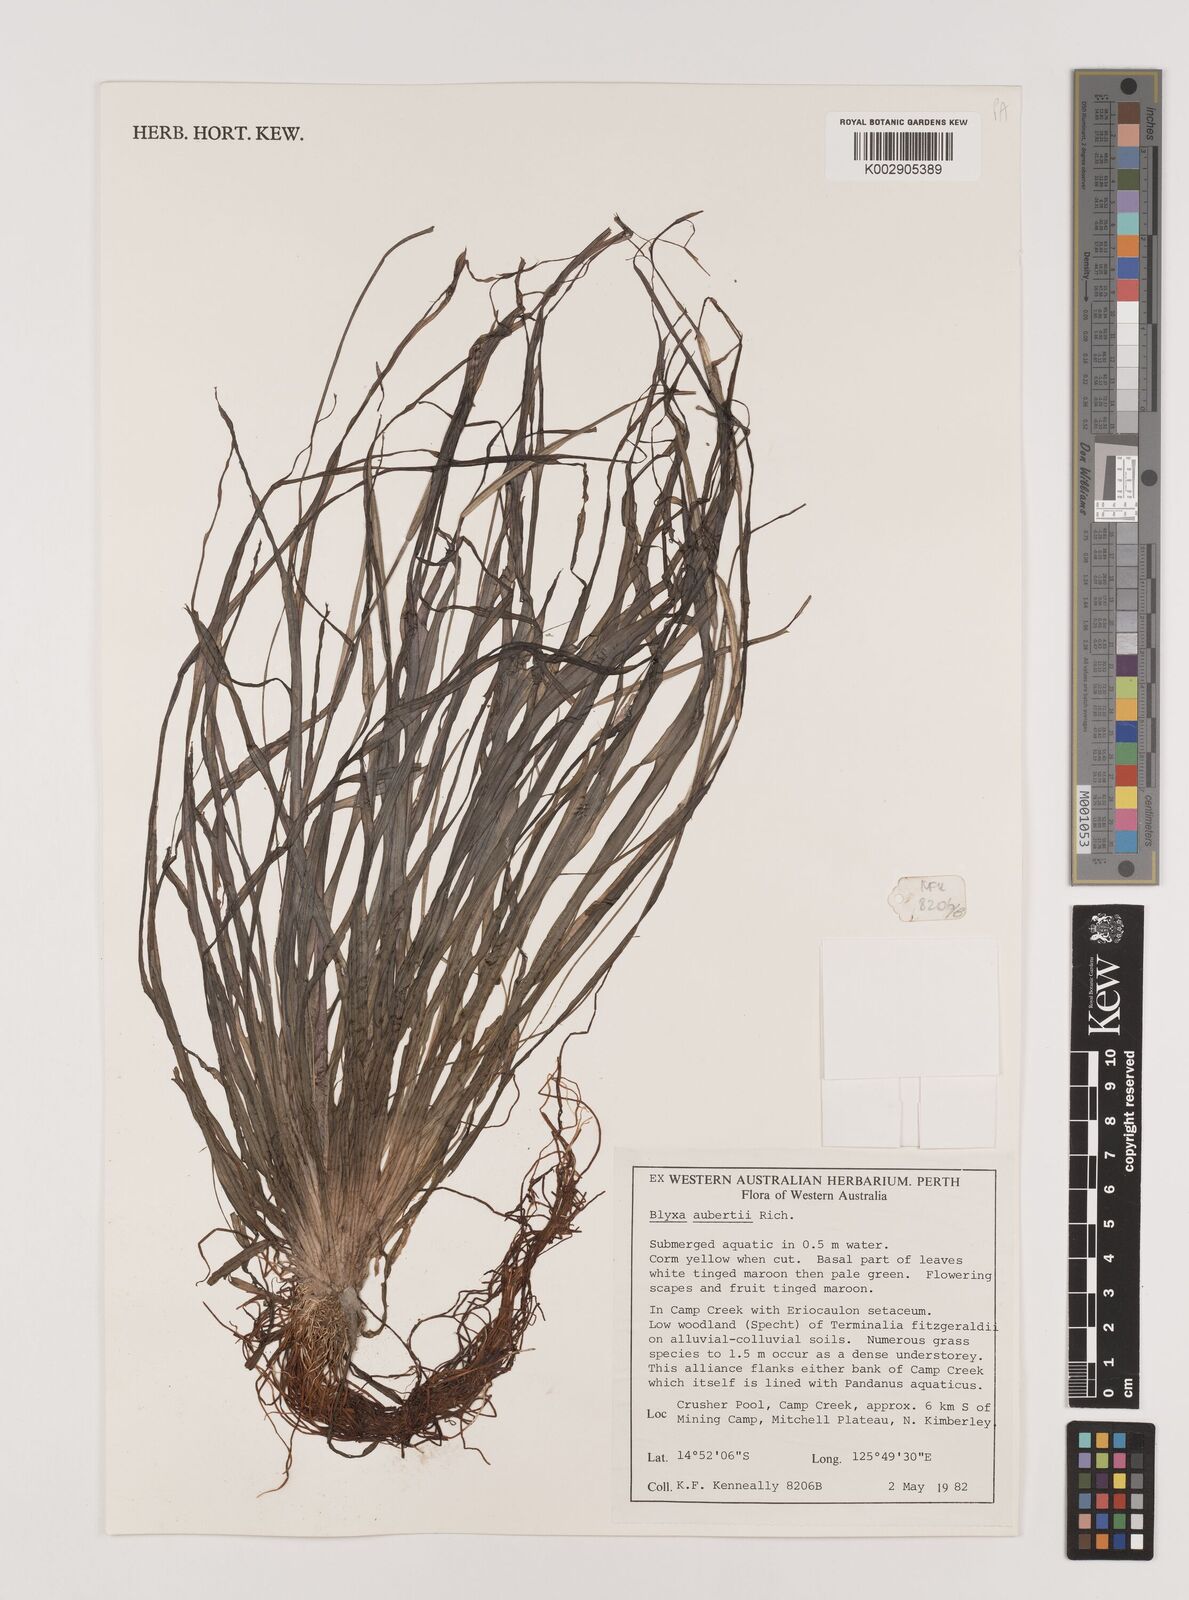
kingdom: Plantae
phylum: Tracheophyta
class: Liliopsida
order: Alismatales
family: Hydrocharitaceae
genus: Blyxa
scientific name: Blyxa aubertii
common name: Roundfruit blyxa
